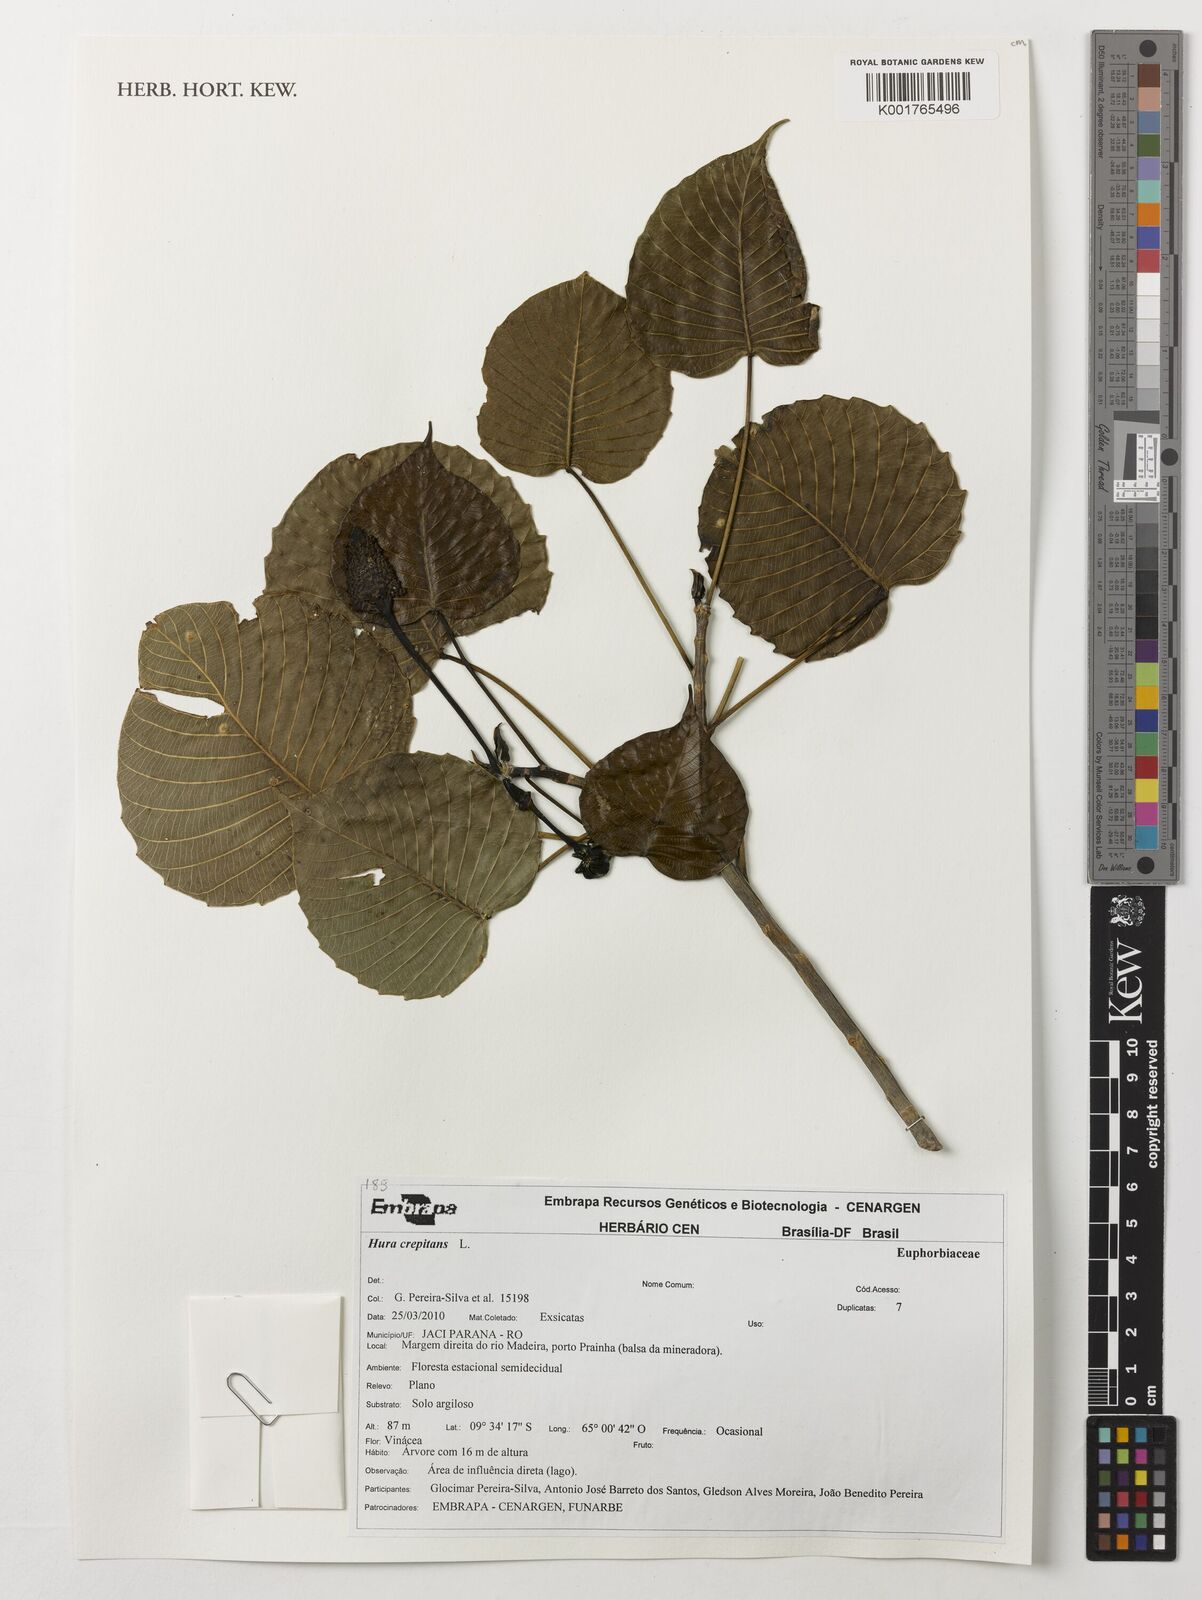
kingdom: Plantae
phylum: Tracheophyta
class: Magnoliopsida
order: Malpighiales
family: Euphorbiaceae
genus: Hura
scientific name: Hura crepitans
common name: Sandboxtree
